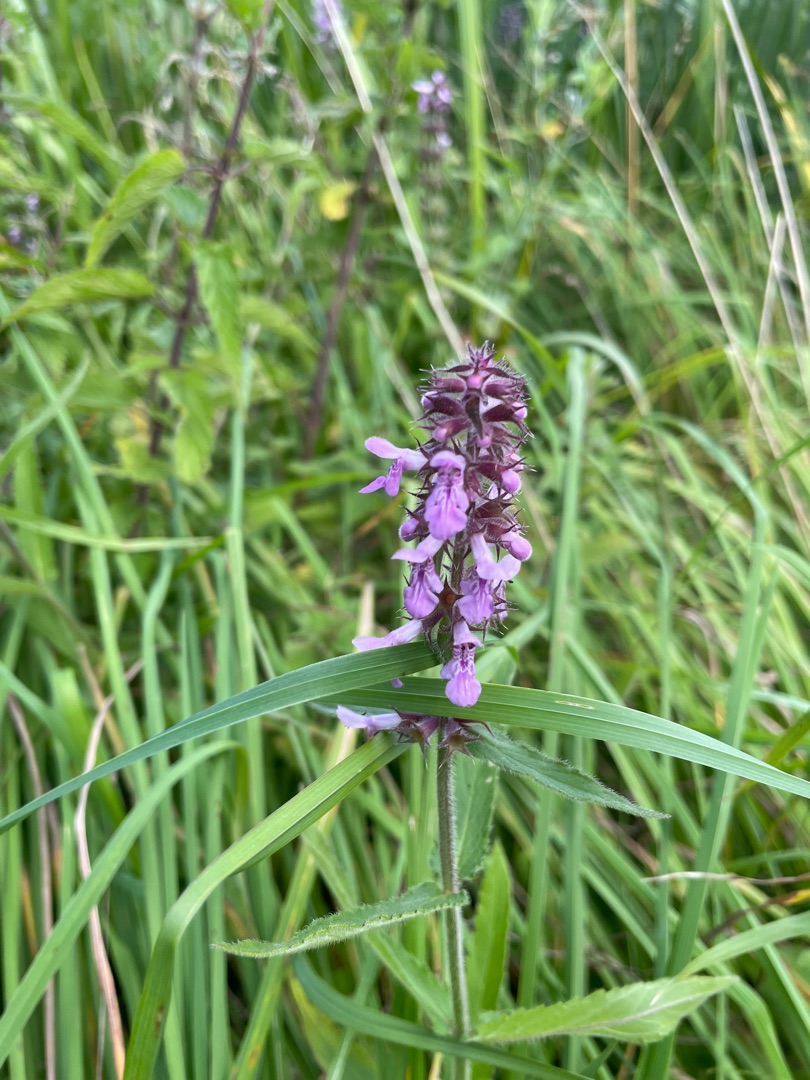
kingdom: Plantae
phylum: Tracheophyta
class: Magnoliopsida
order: Lamiales
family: Lamiaceae
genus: Stachys
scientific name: Stachys palustris
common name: Kær-galtetand
